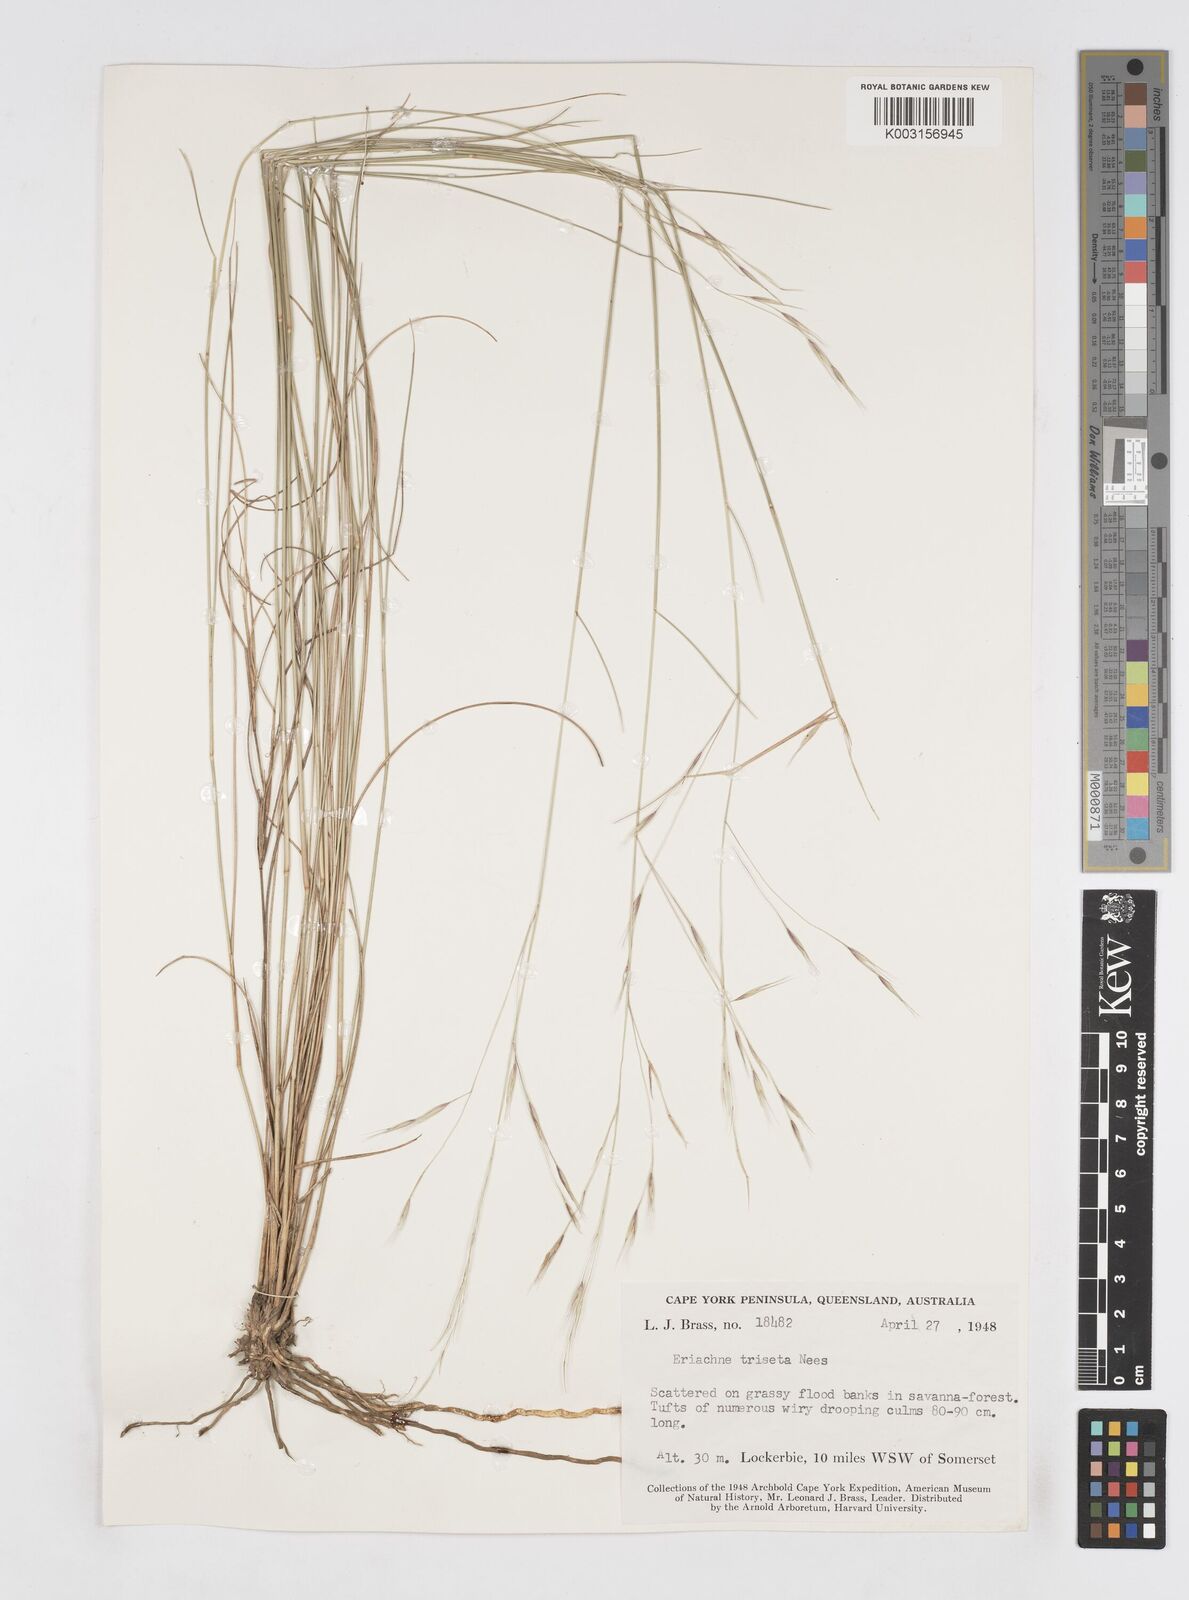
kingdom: Plantae
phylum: Tracheophyta
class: Liliopsida
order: Poales
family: Poaceae
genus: Eriachne
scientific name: Eriachne triseta
